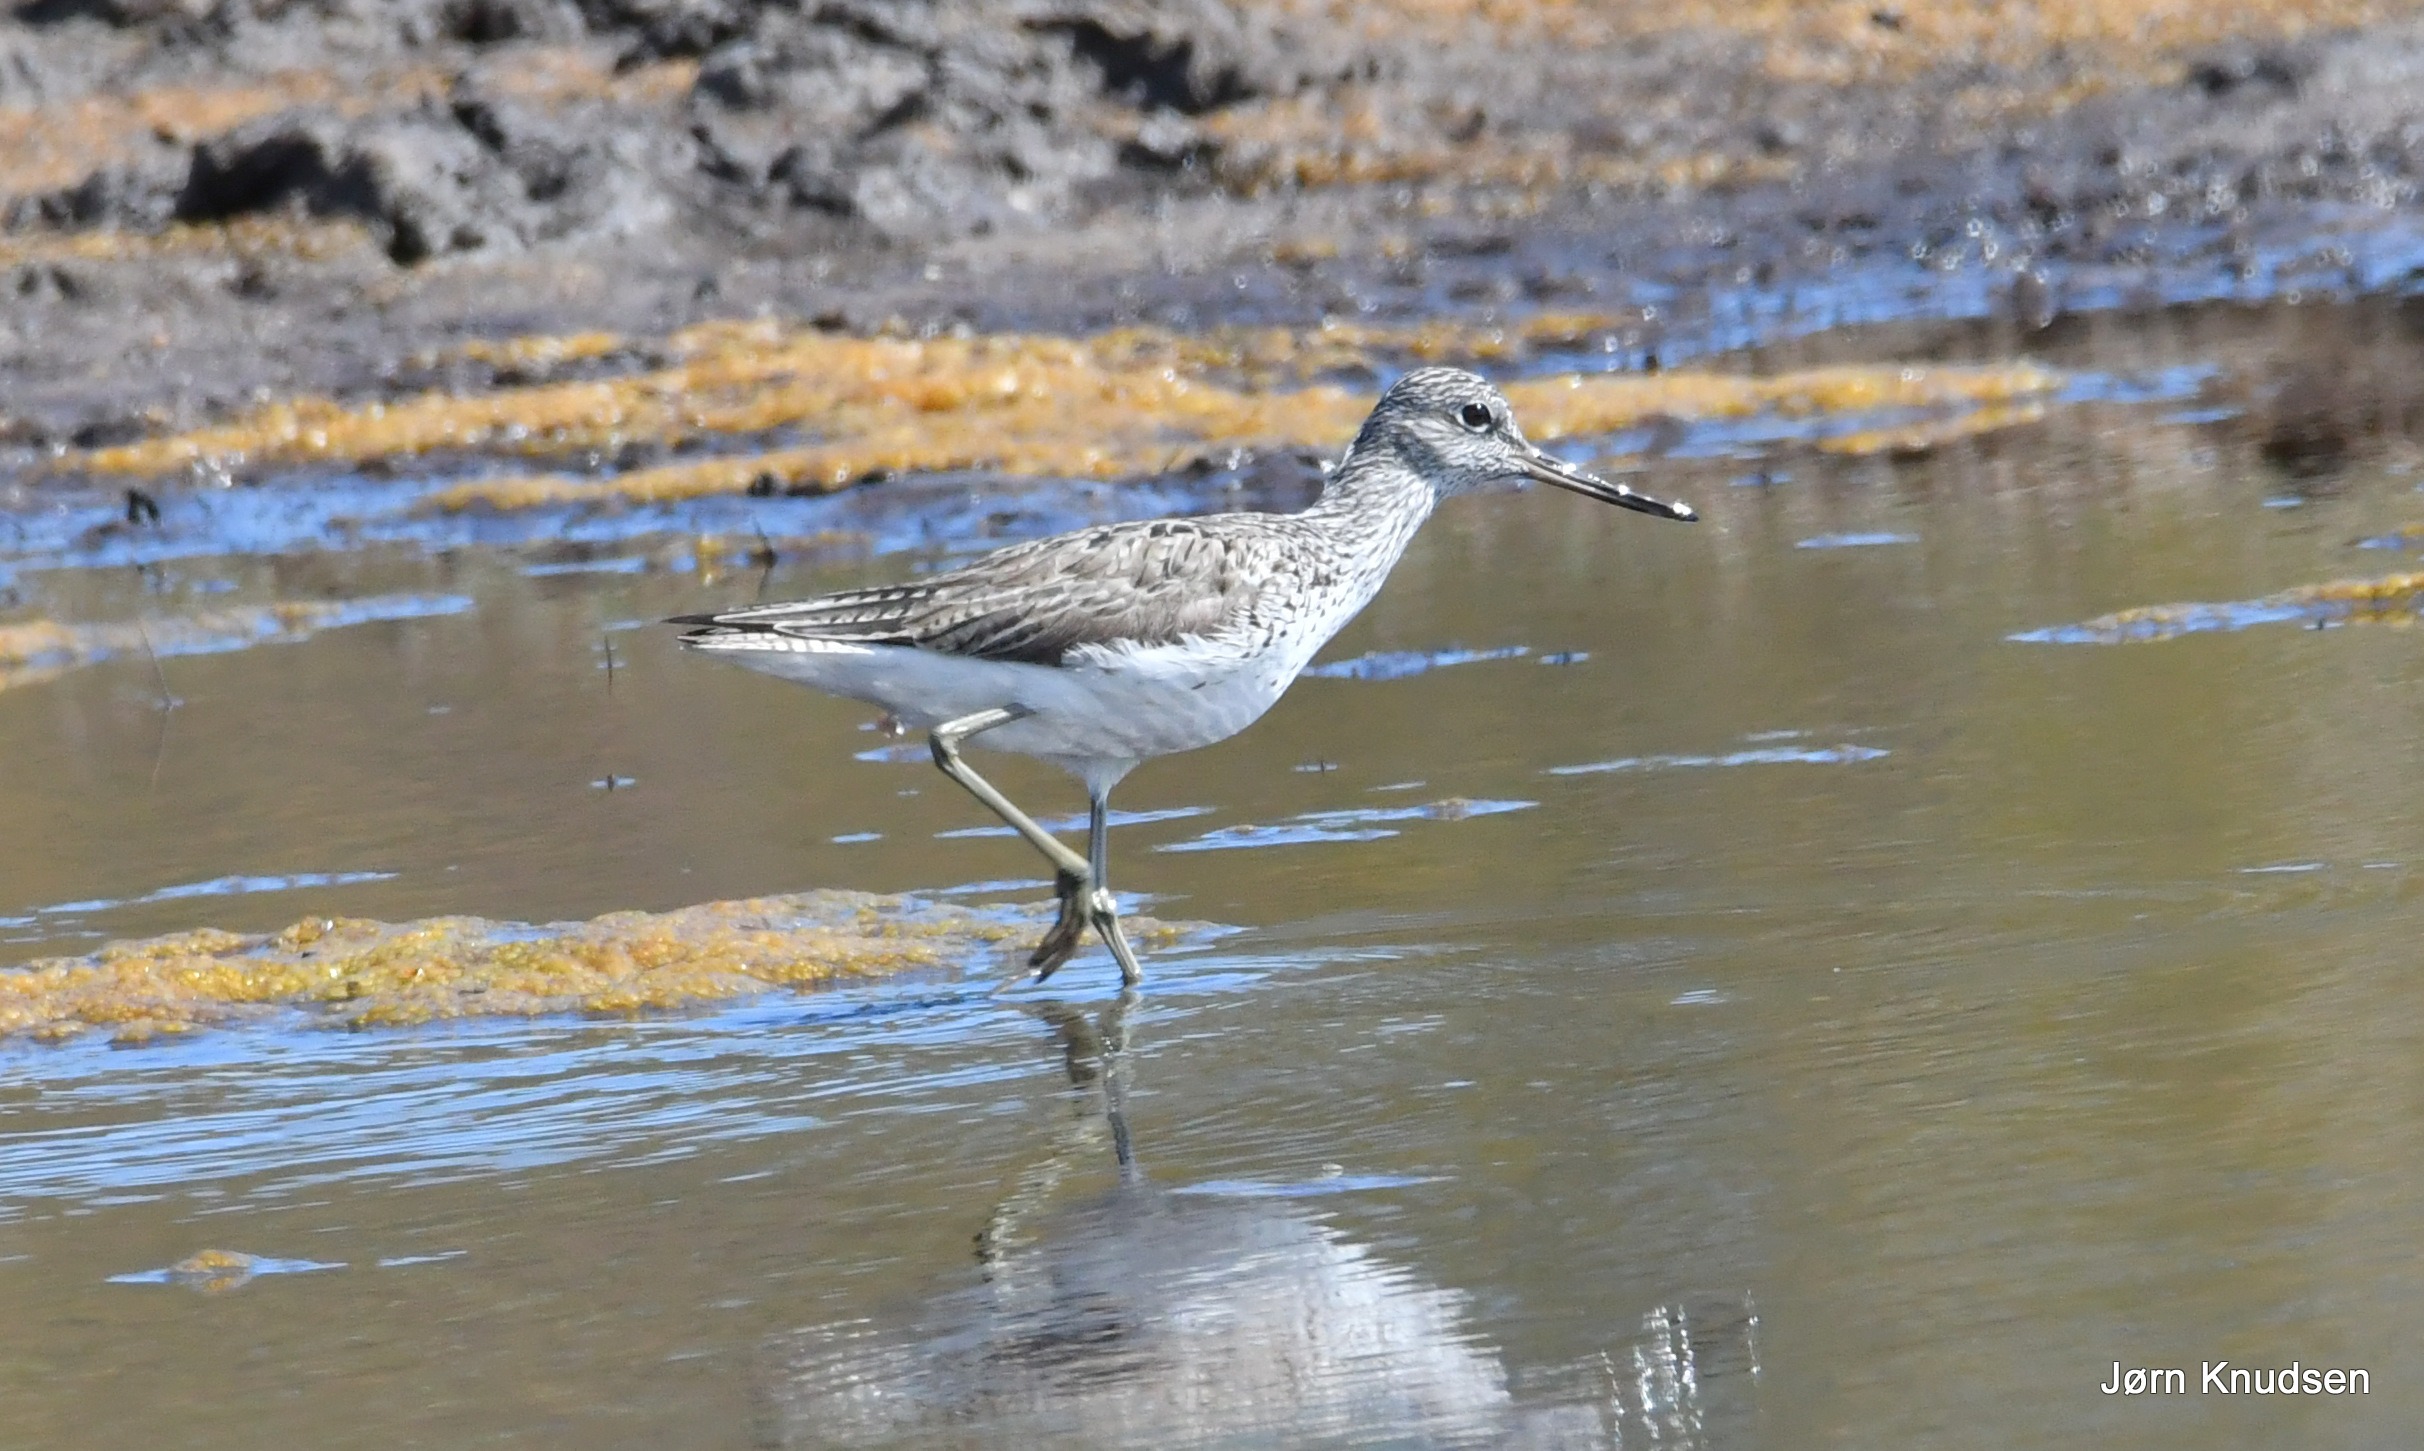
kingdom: Animalia
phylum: Chordata
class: Aves
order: Charadriiformes
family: Scolopacidae
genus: Tringa
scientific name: Tringa nebularia
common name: Hvidklire
